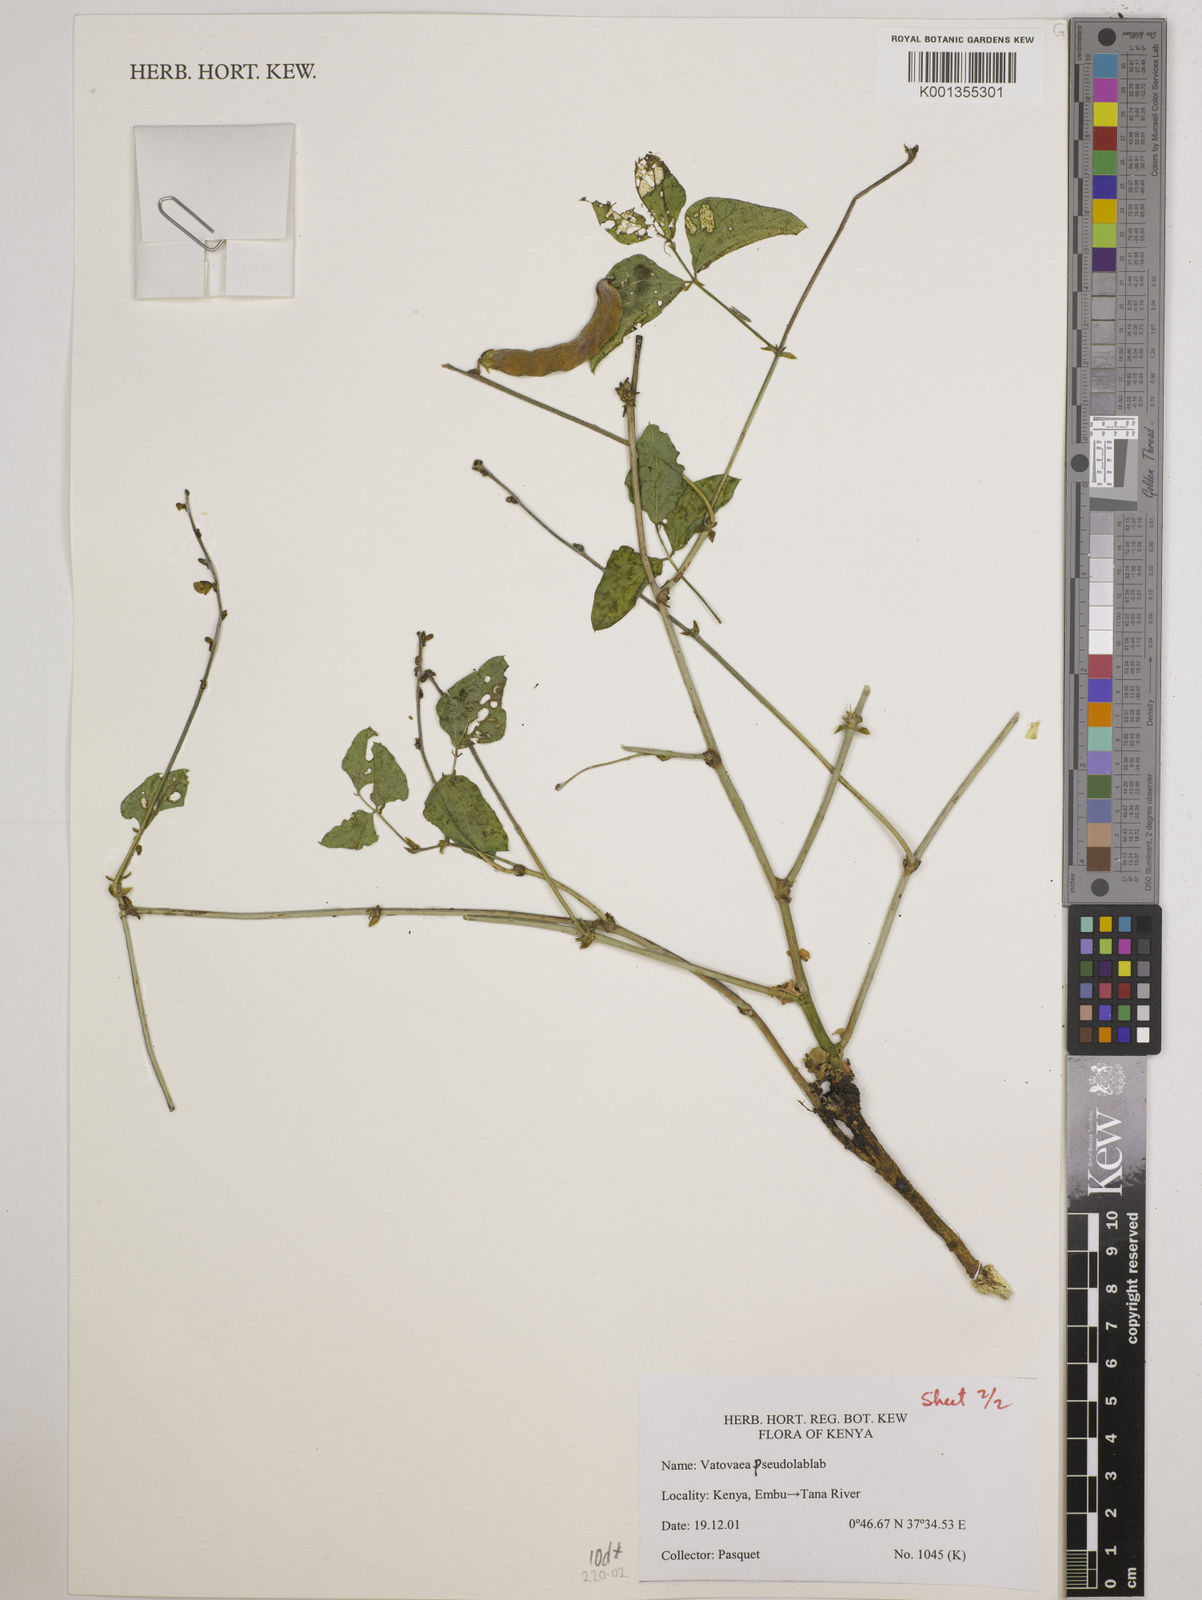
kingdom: Plantae
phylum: Tracheophyta
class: Magnoliopsida
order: Fabales
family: Fabaceae
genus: Vatovaea
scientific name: Vatovaea pseudolablab
